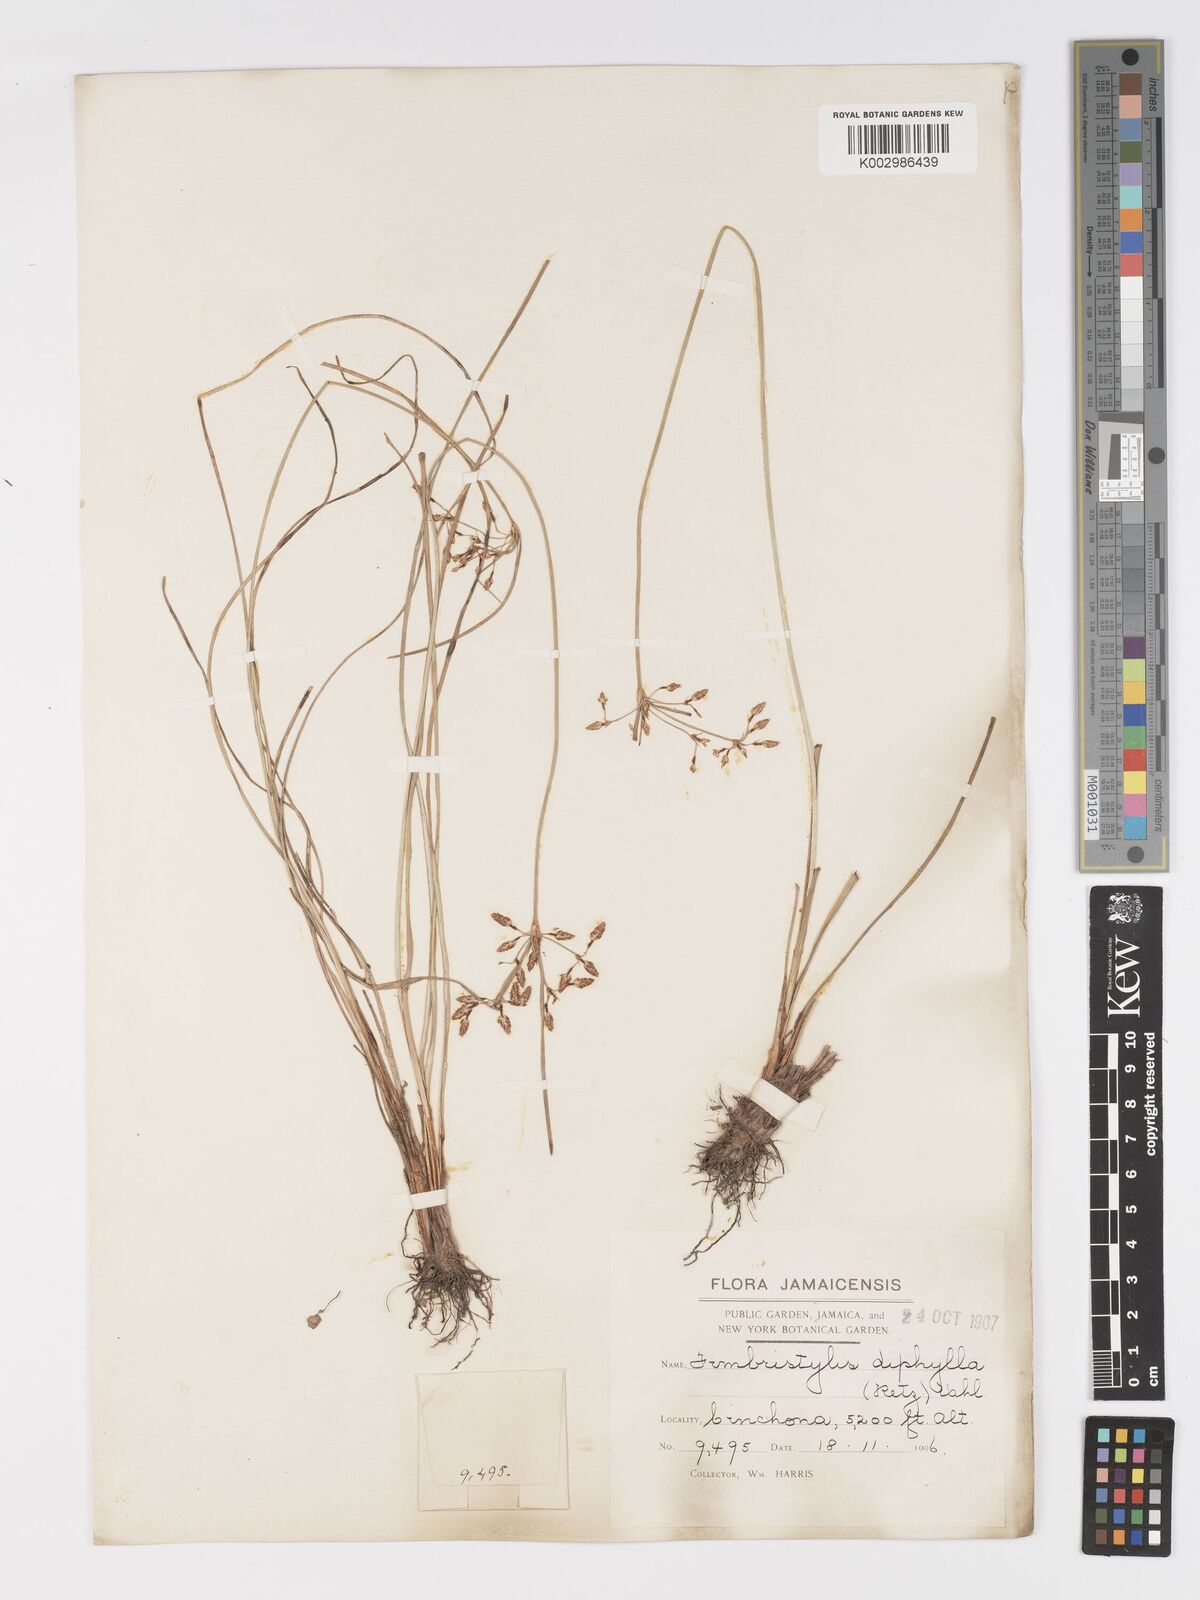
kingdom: Plantae
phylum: Tracheophyta
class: Liliopsida
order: Poales
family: Cyperaceae
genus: Fimbristylis
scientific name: Fimbristylis dichotoma
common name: Forked fimbry
